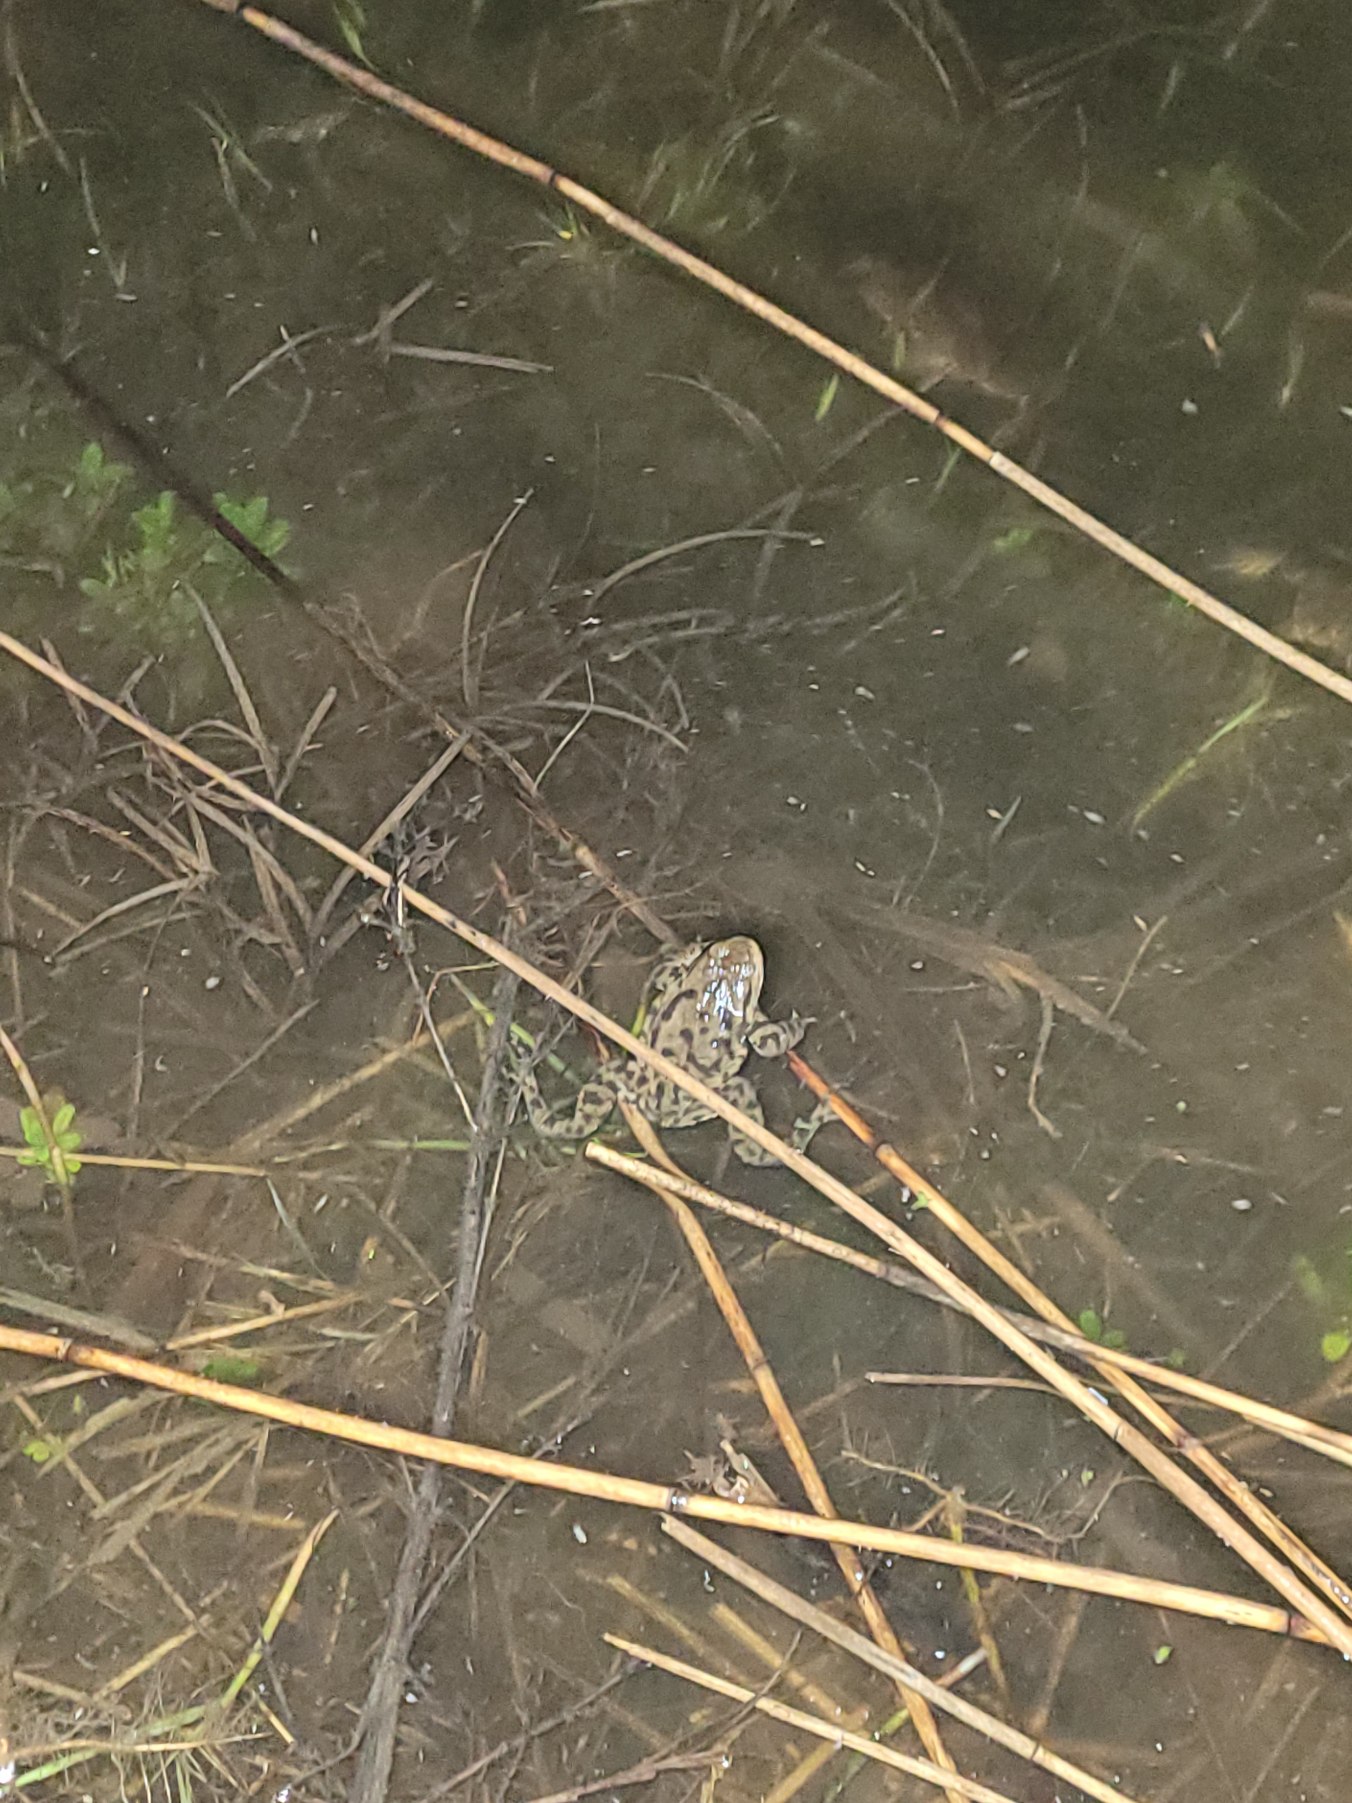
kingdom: Animalia
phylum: Chordata
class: Amphibia
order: Anura
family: Bufonidae
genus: Bufo
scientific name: Bufo bufo
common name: Skrubtudse
